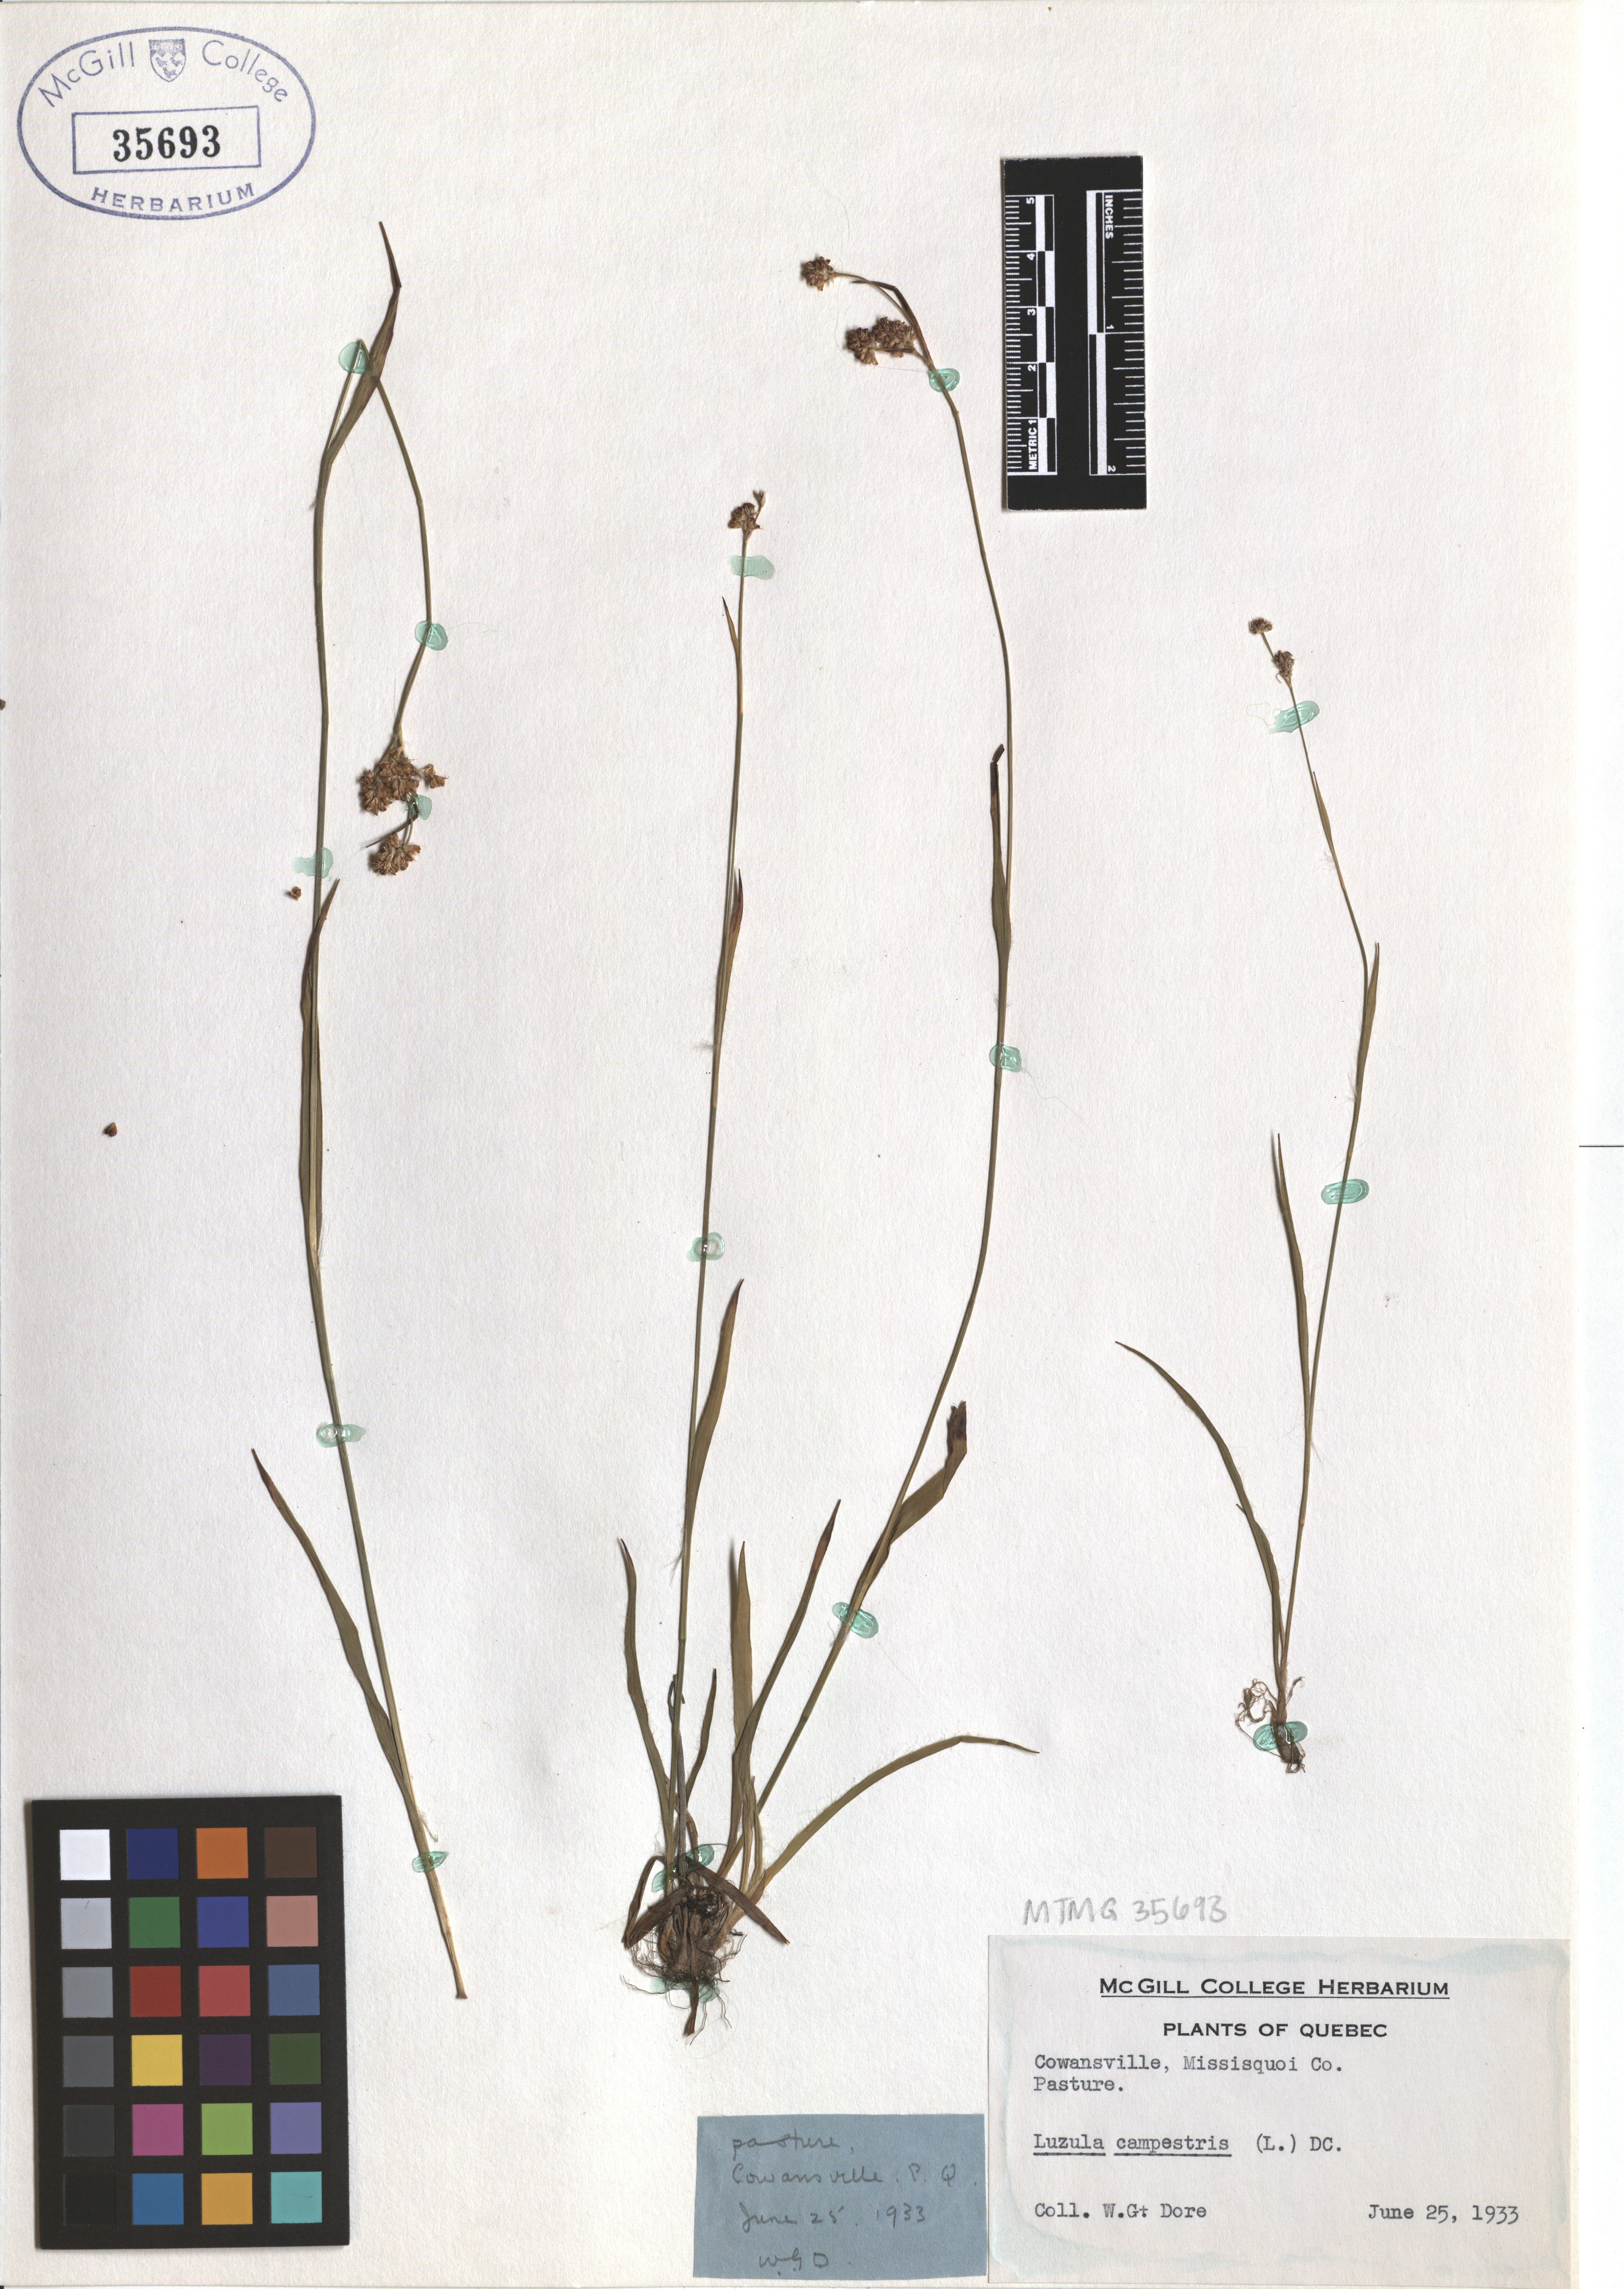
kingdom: Plantae
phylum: Tracheophyta
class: Liliopsida
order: Poales
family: Juncaceae
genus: Luzula
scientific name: Luzula campestris
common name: Field wood-rush
